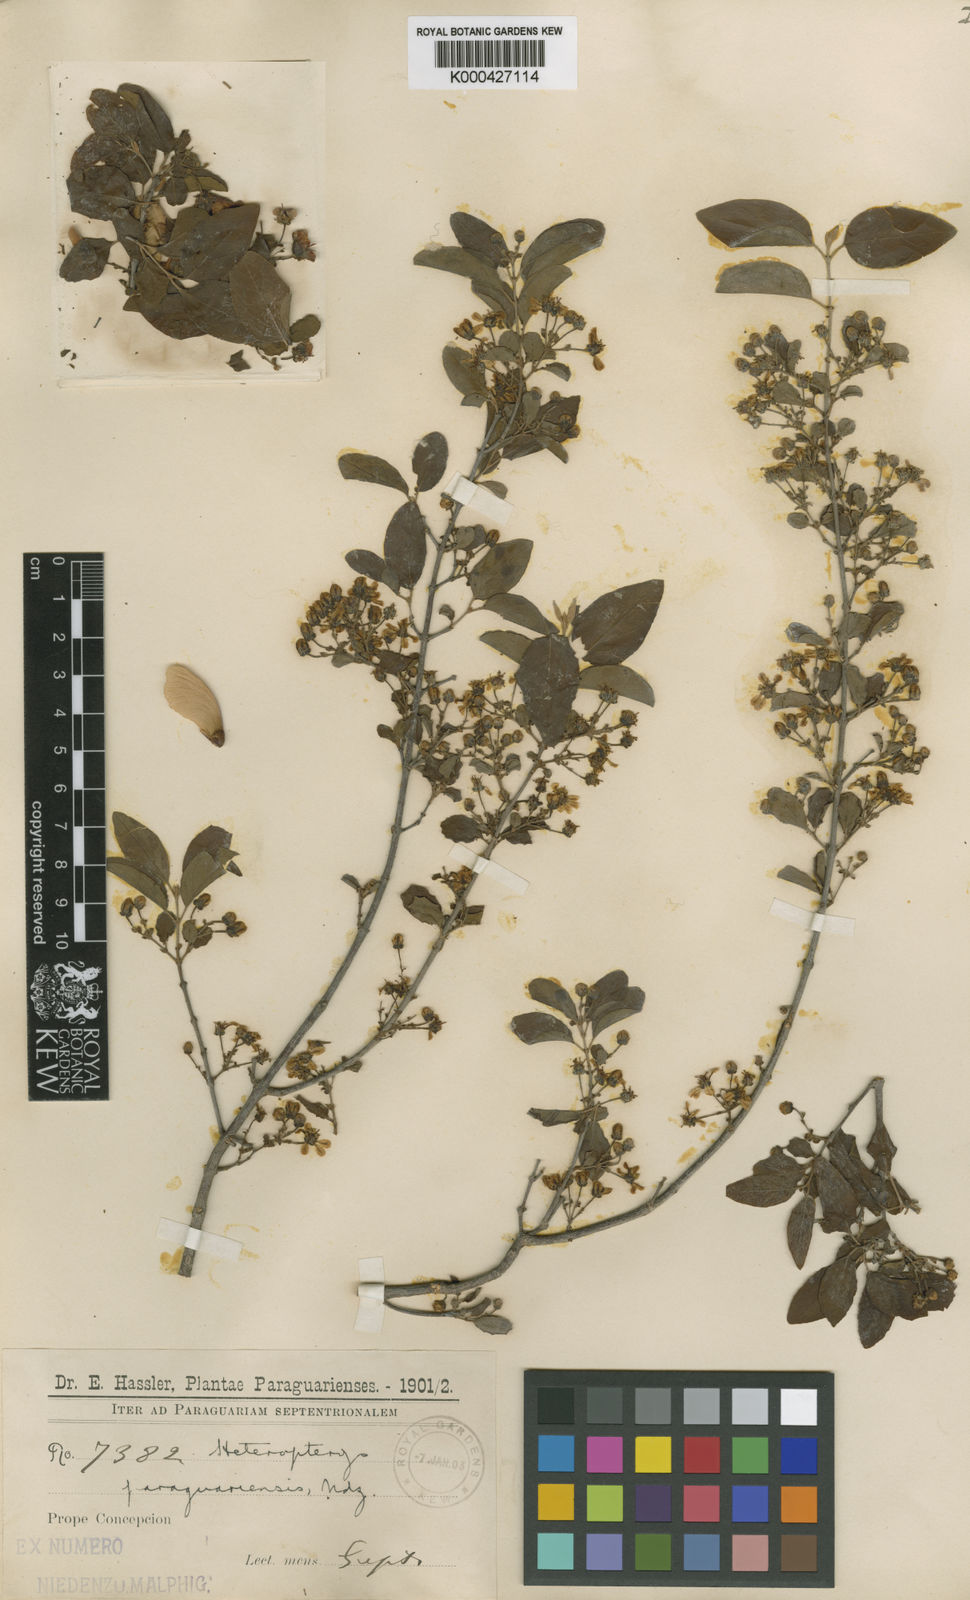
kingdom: Plantae
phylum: Tracheophyta
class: Magnoliopsida
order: Malpighiales
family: Malpighiaceae
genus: Heteropterys
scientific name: Heteropterys dumetorum
